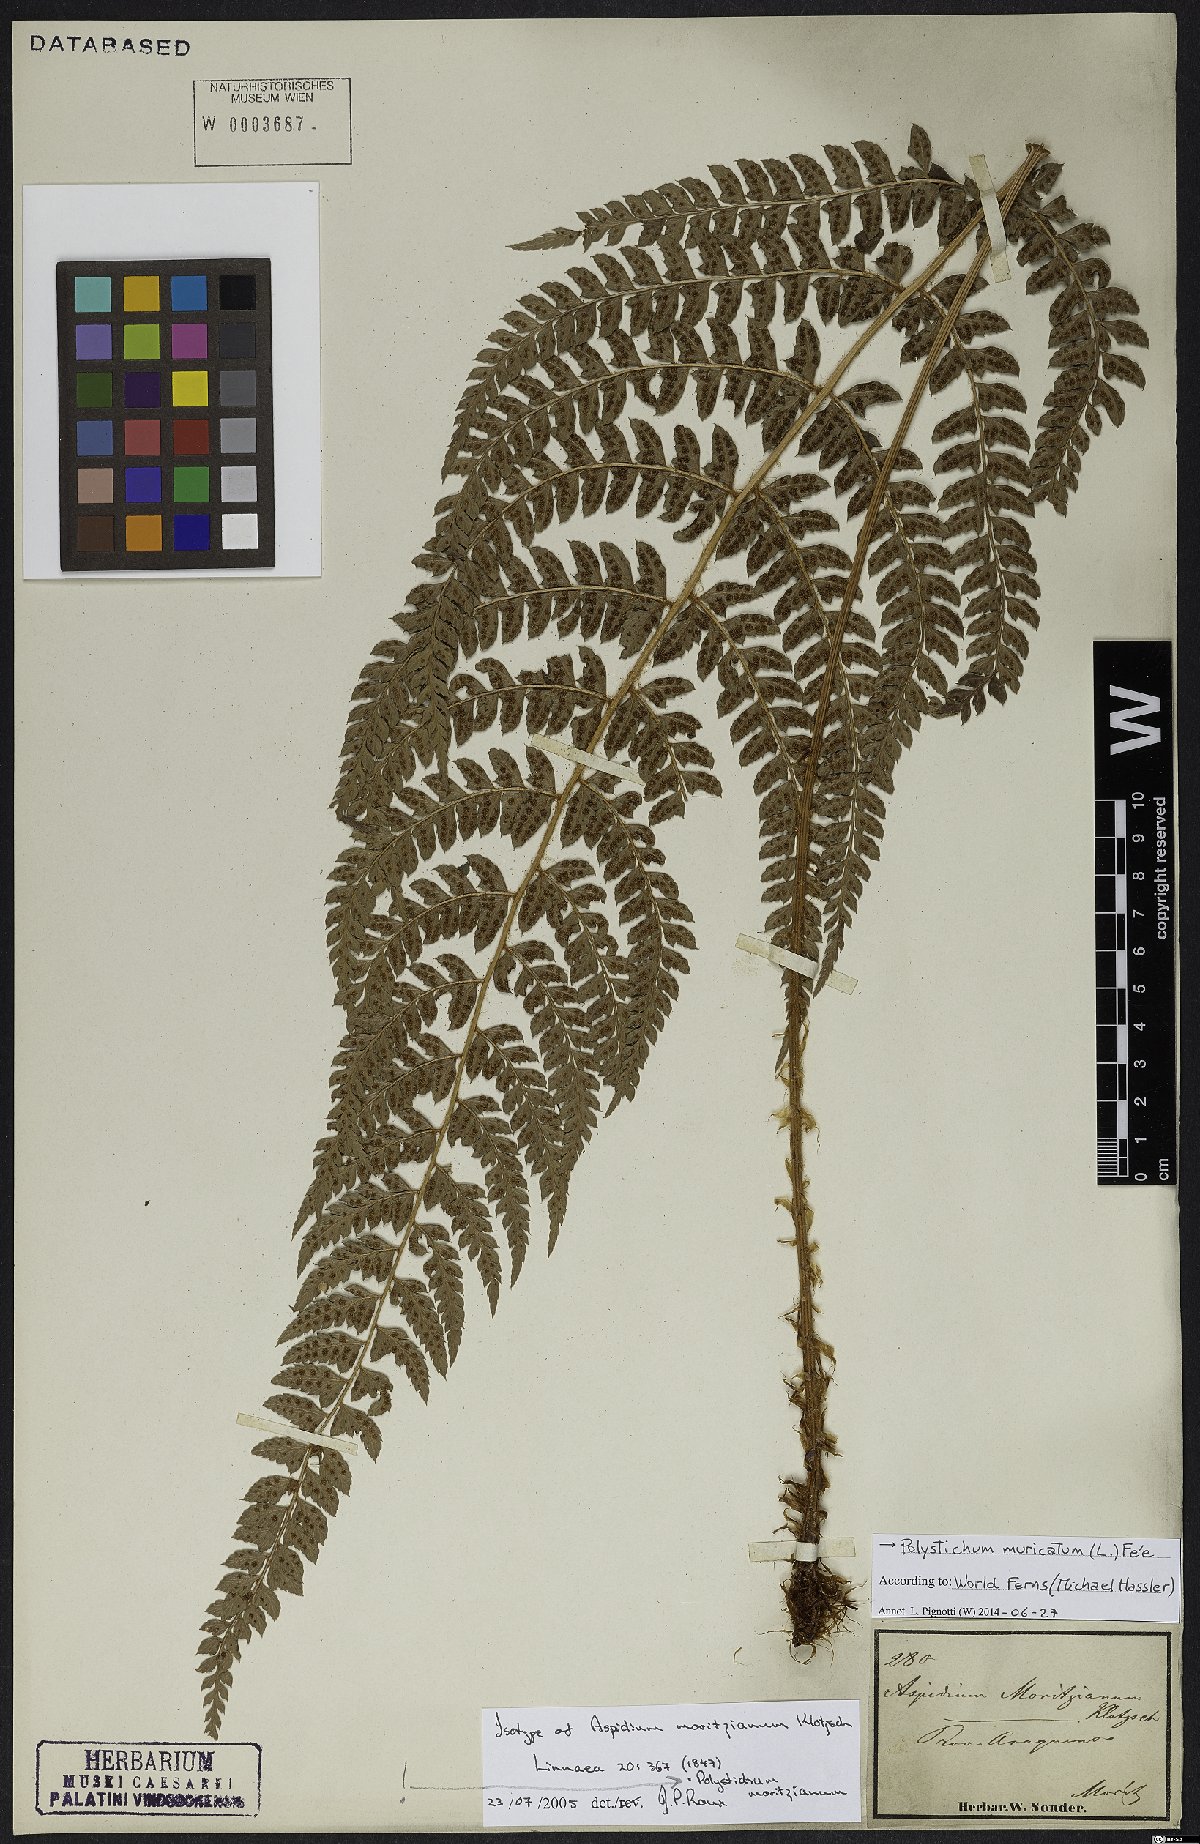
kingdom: Plantae
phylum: Tracheophyta
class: Polypodiopsida
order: Polypodiales
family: Dryopteridaceae
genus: Polystichum
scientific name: Polystichum muricatum
